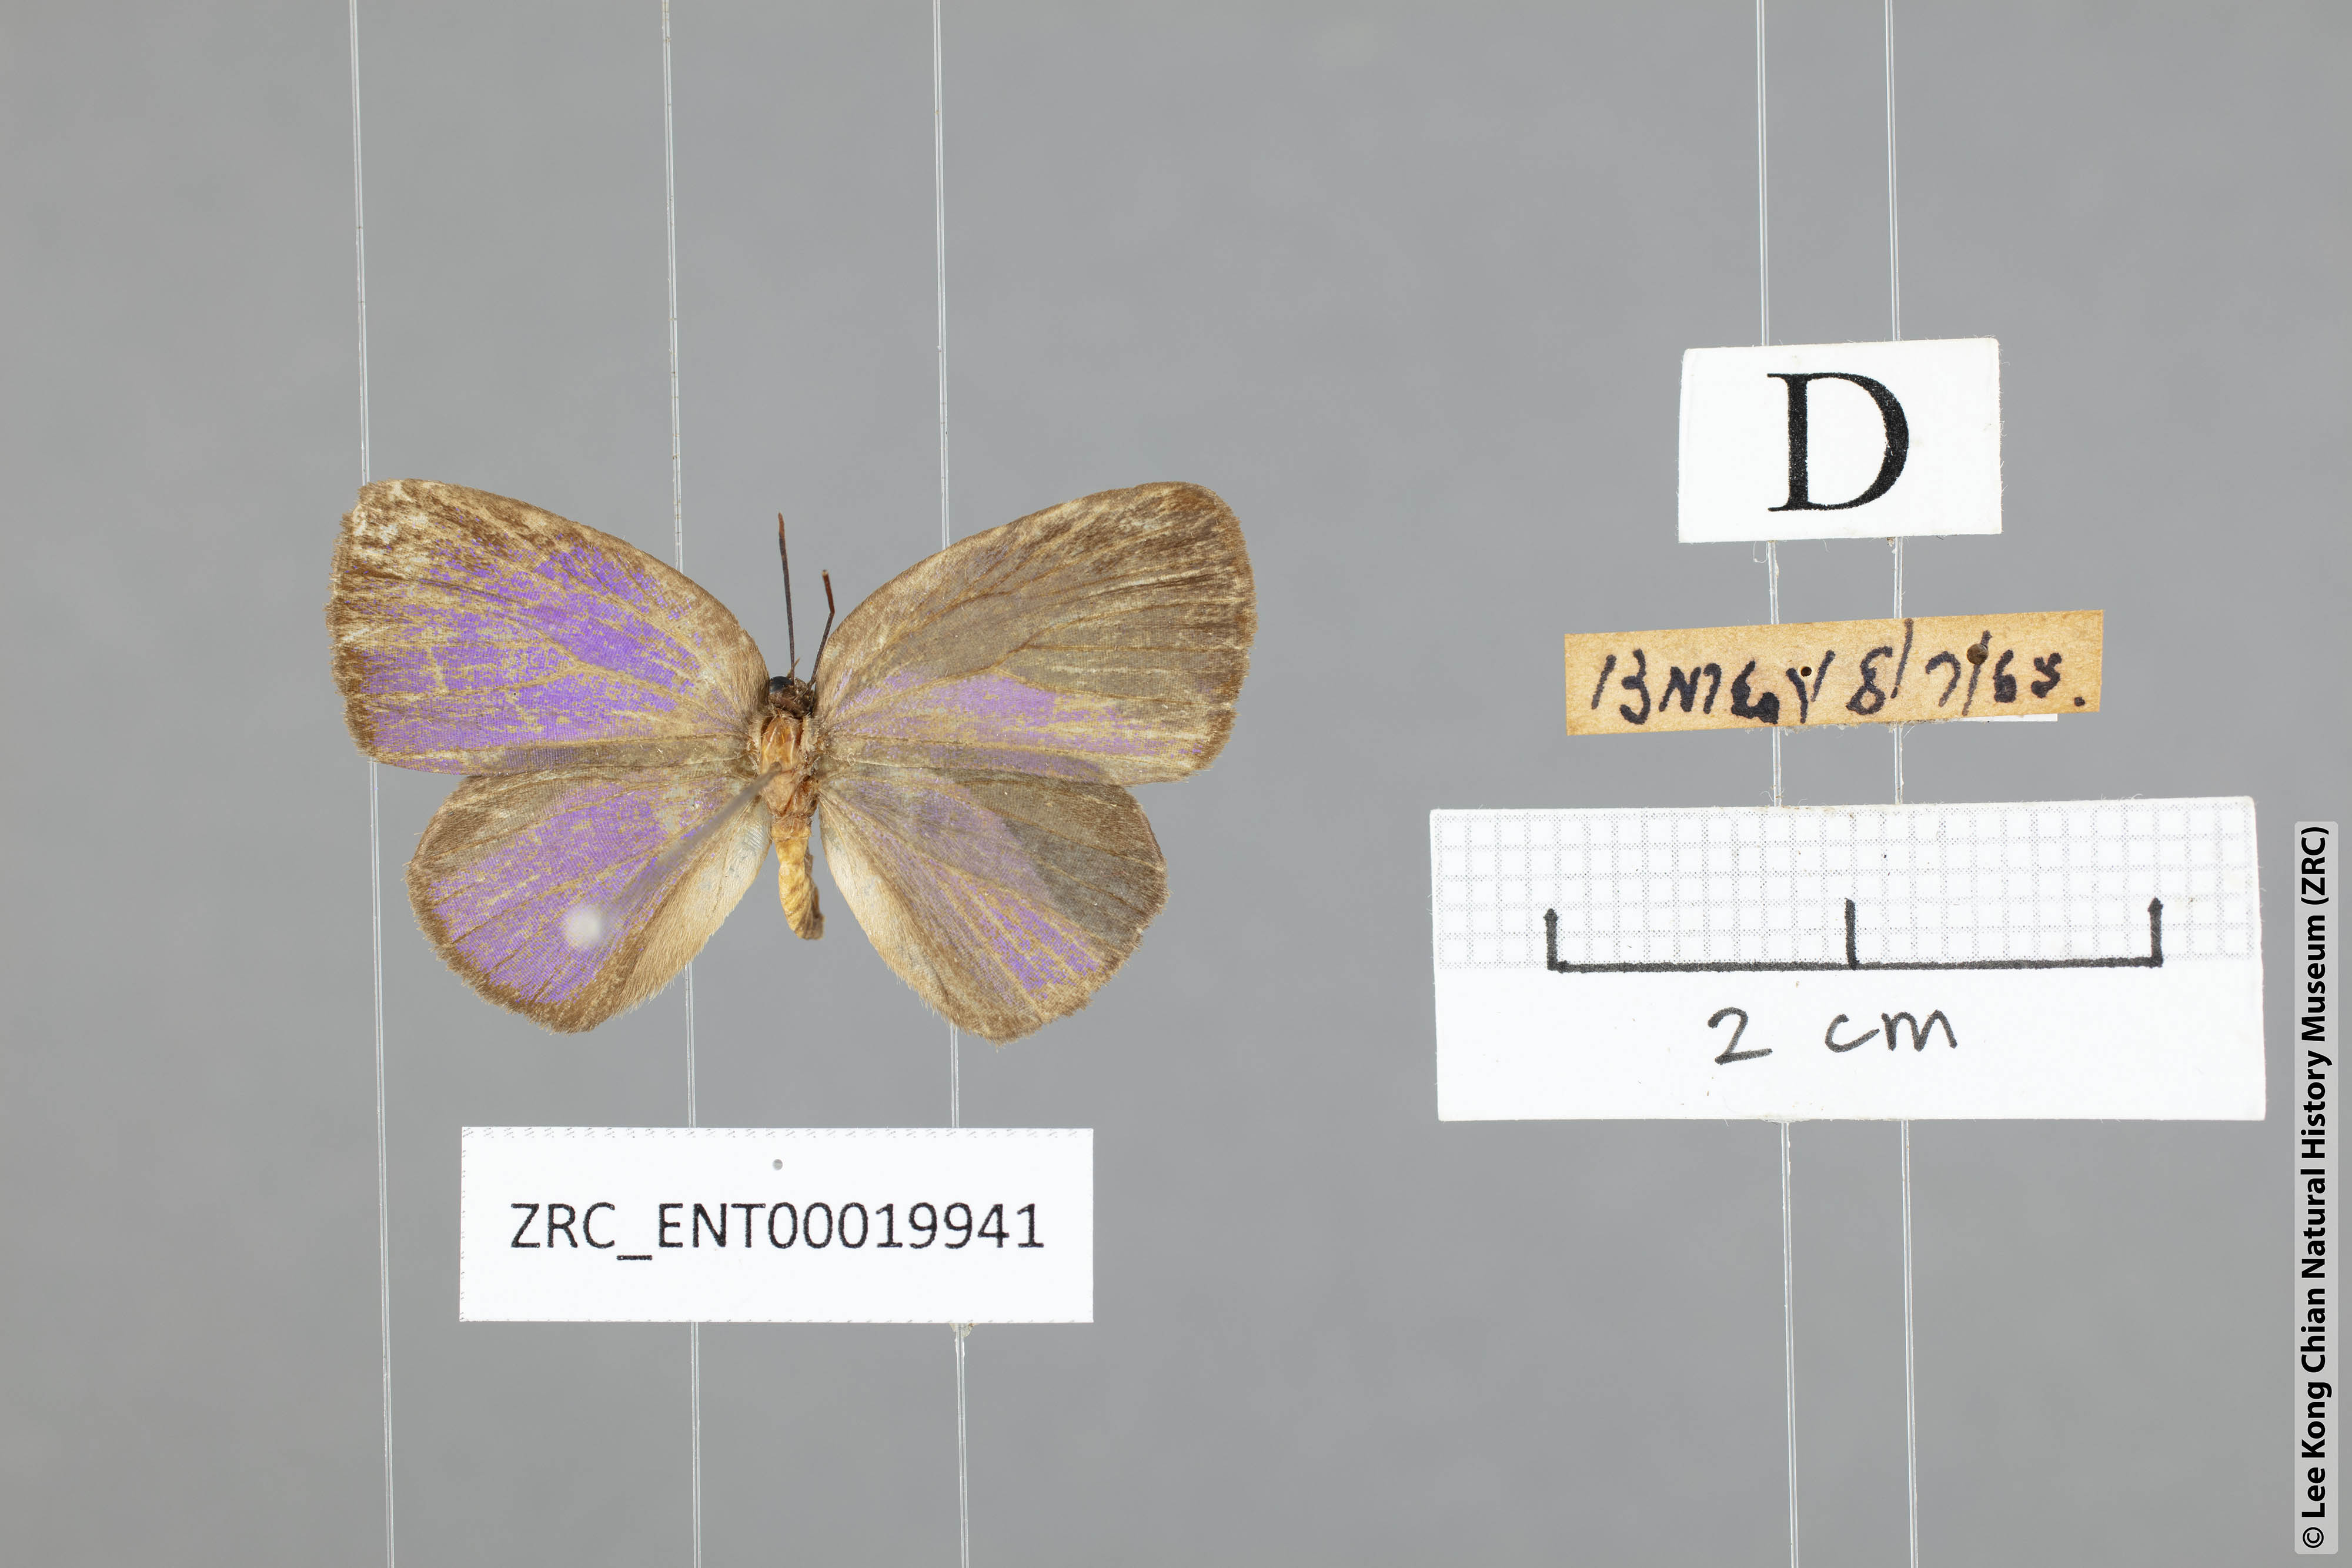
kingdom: Animalia
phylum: Arthropoda
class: Insecta
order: Lepidoptera
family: Lycaenidae
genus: Arhopala
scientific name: Arhopala zylda
